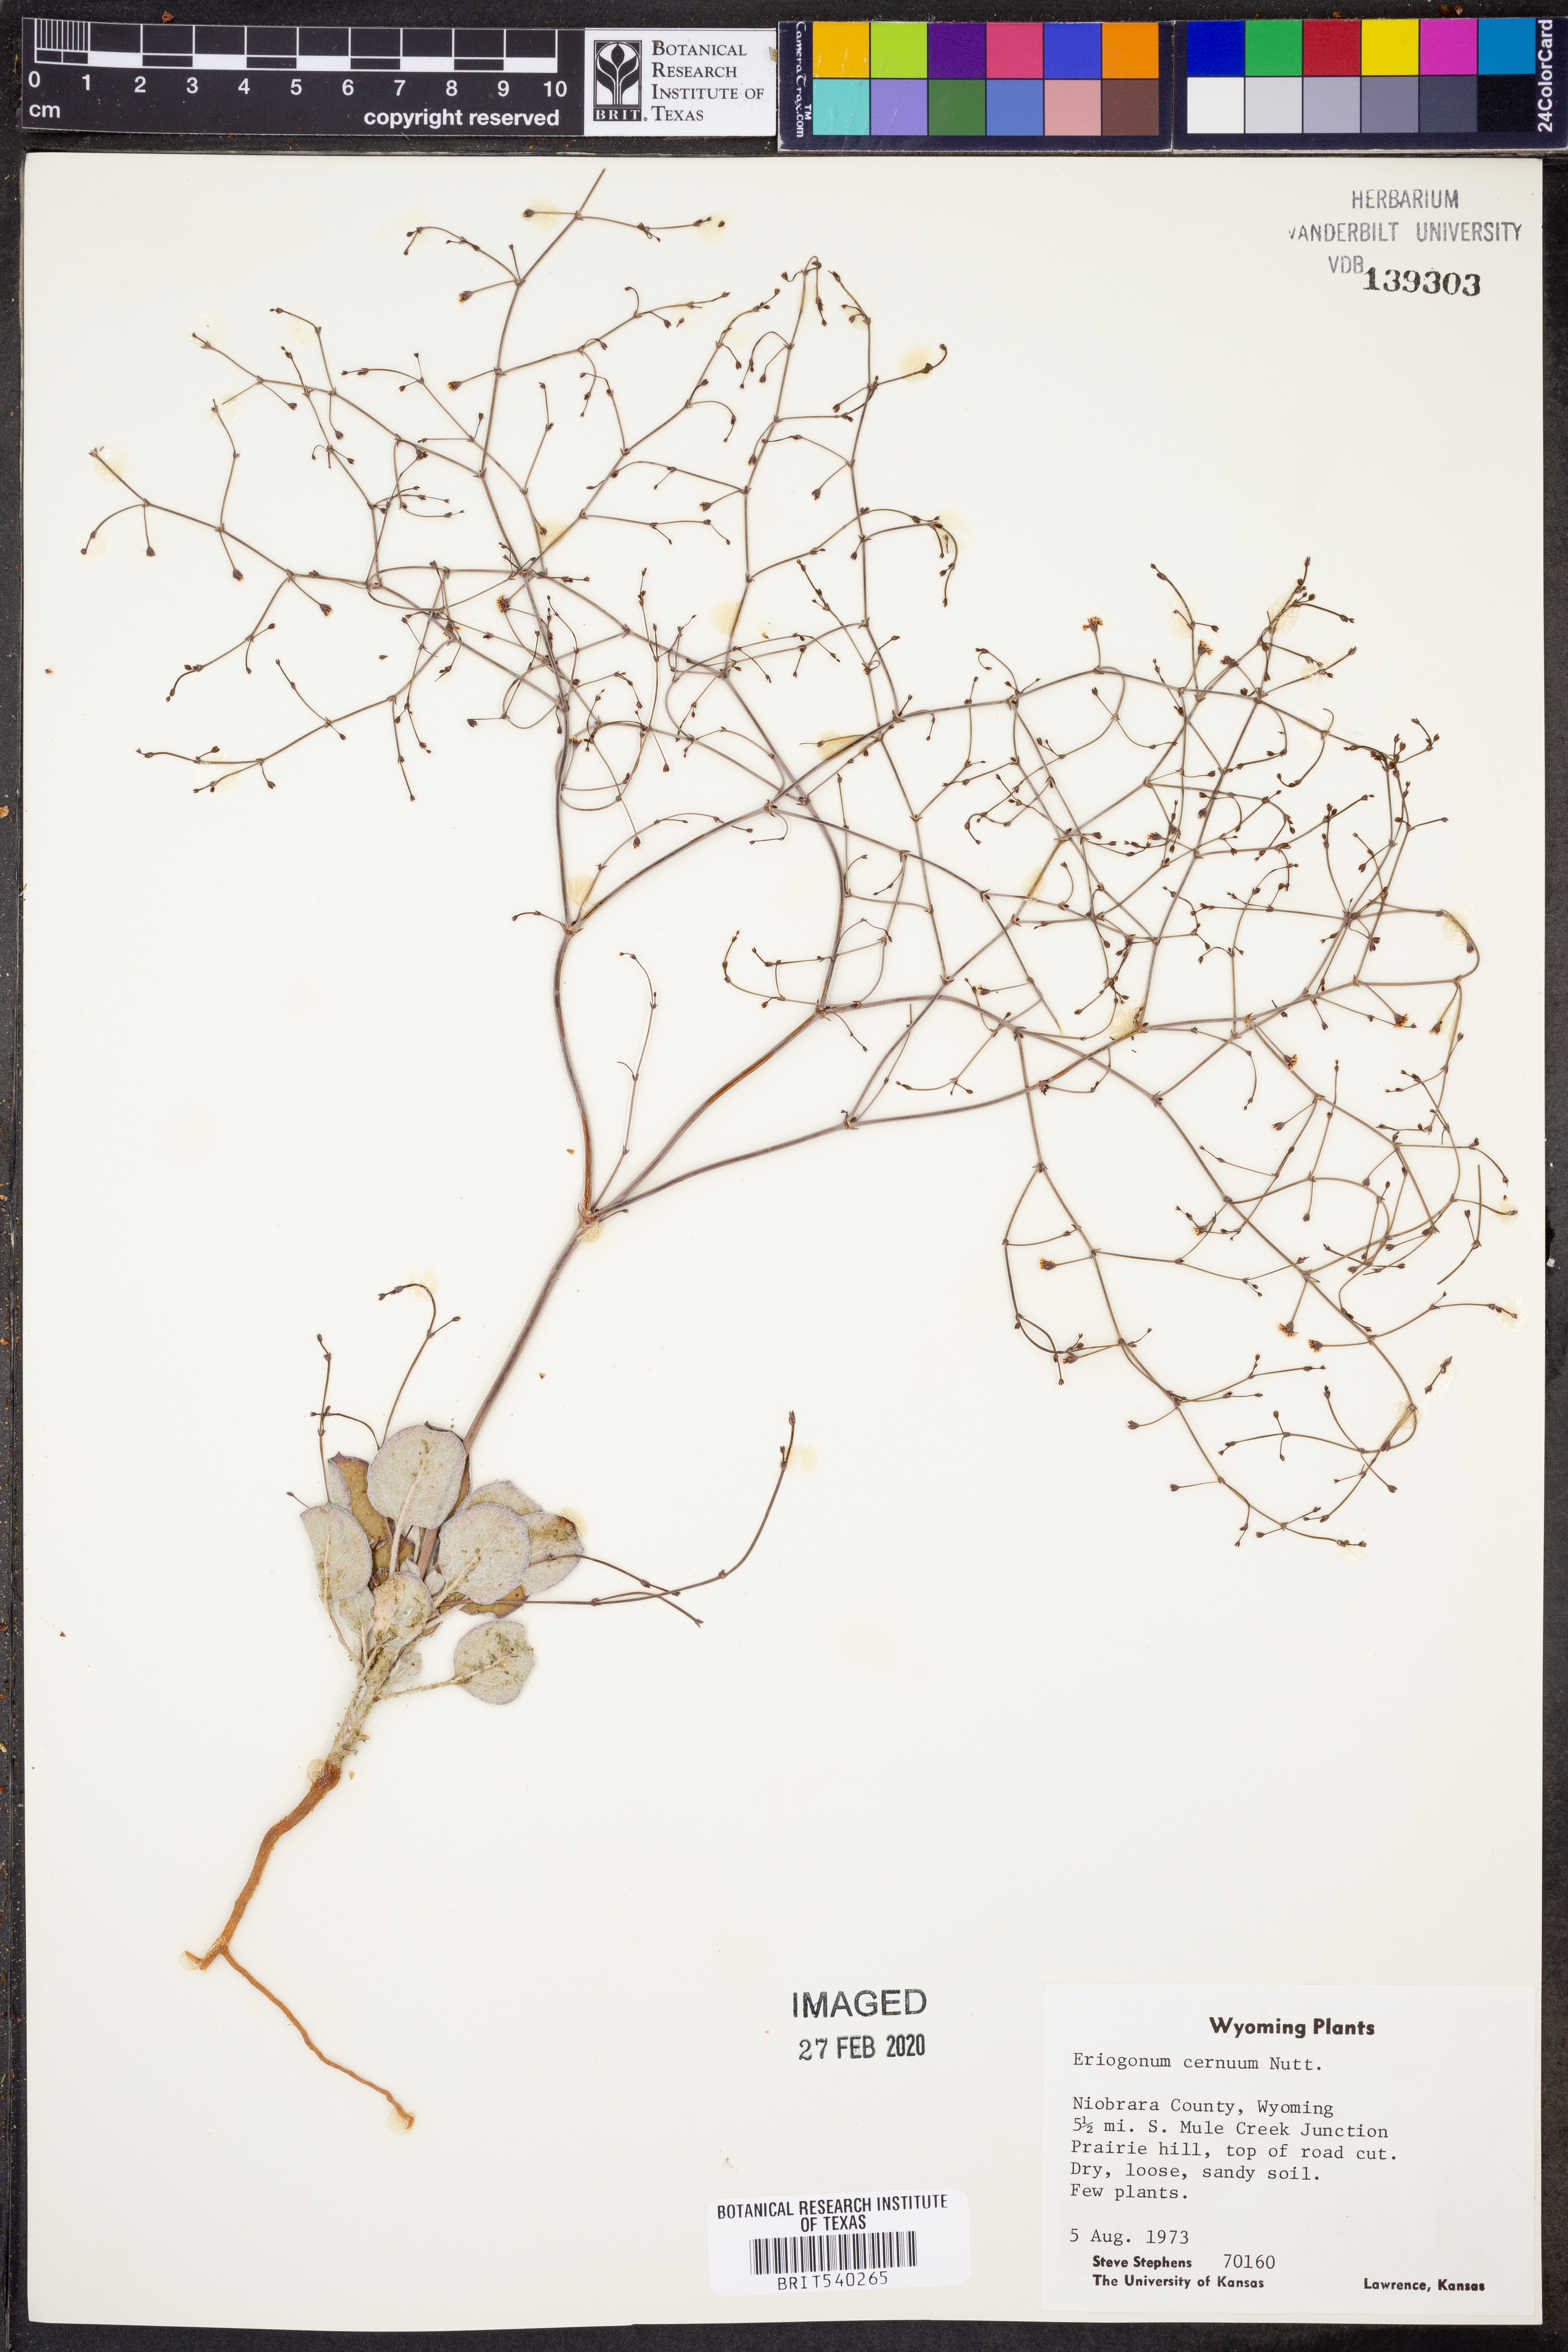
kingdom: Plantae
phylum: Tracheophyta
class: Magnoliopsida
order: Caryophyllales
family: Polygonaceae
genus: Eriogonum
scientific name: Eriogonum cernuum
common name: Nodding wild buckwheat
